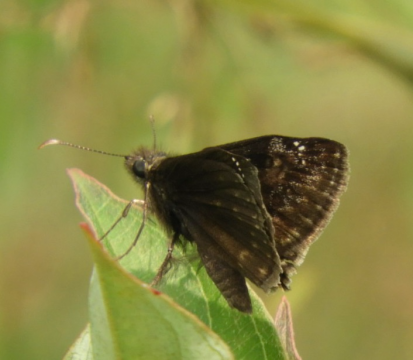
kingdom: Animalia
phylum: Arthropoda
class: Insecta
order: Lepidoptera
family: Hesperiidae
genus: Gesta
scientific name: Gesta
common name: Wild Indigo Duskywing
